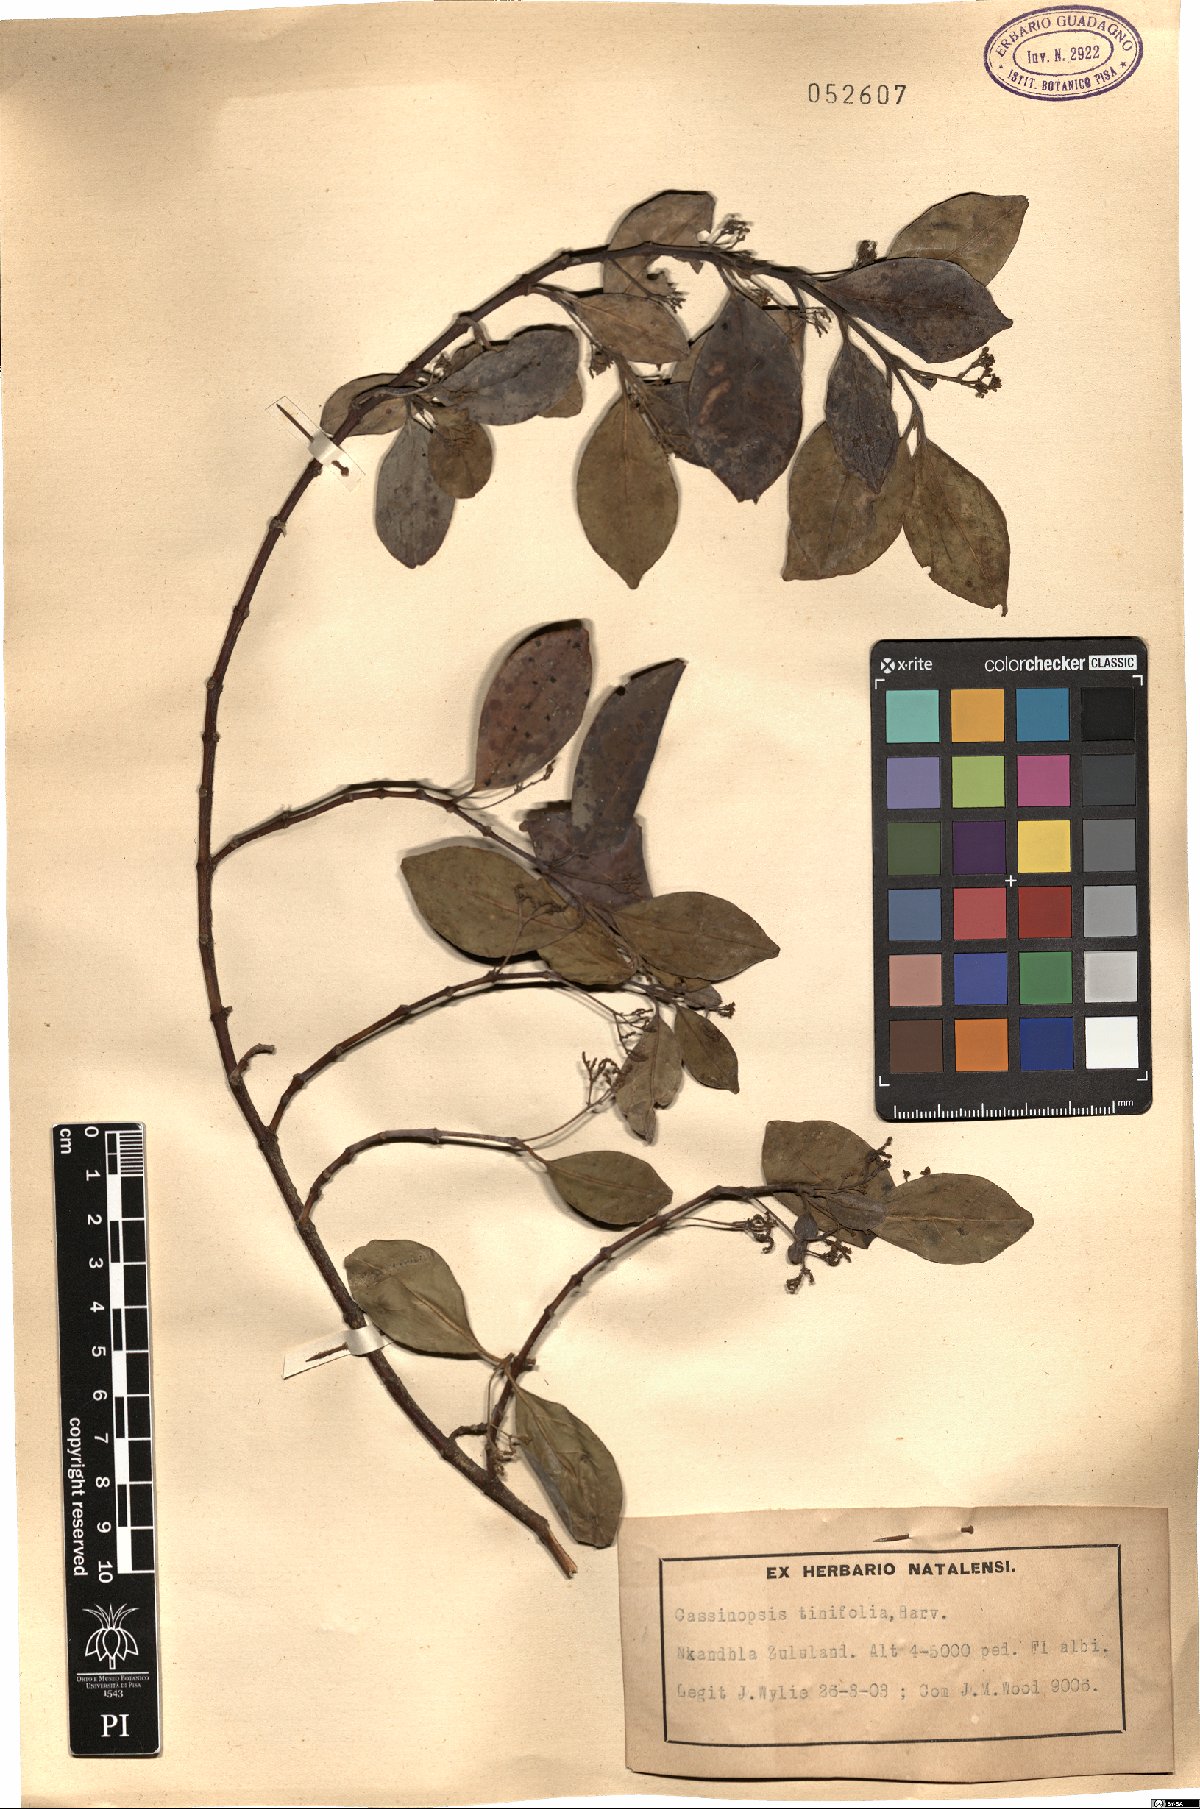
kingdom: Plantae
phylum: Tracheophyta
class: Magnoliopsida
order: Icacinales
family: Icacinaceae
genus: Cassinopsis
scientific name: Cassinopsis tinifolia
